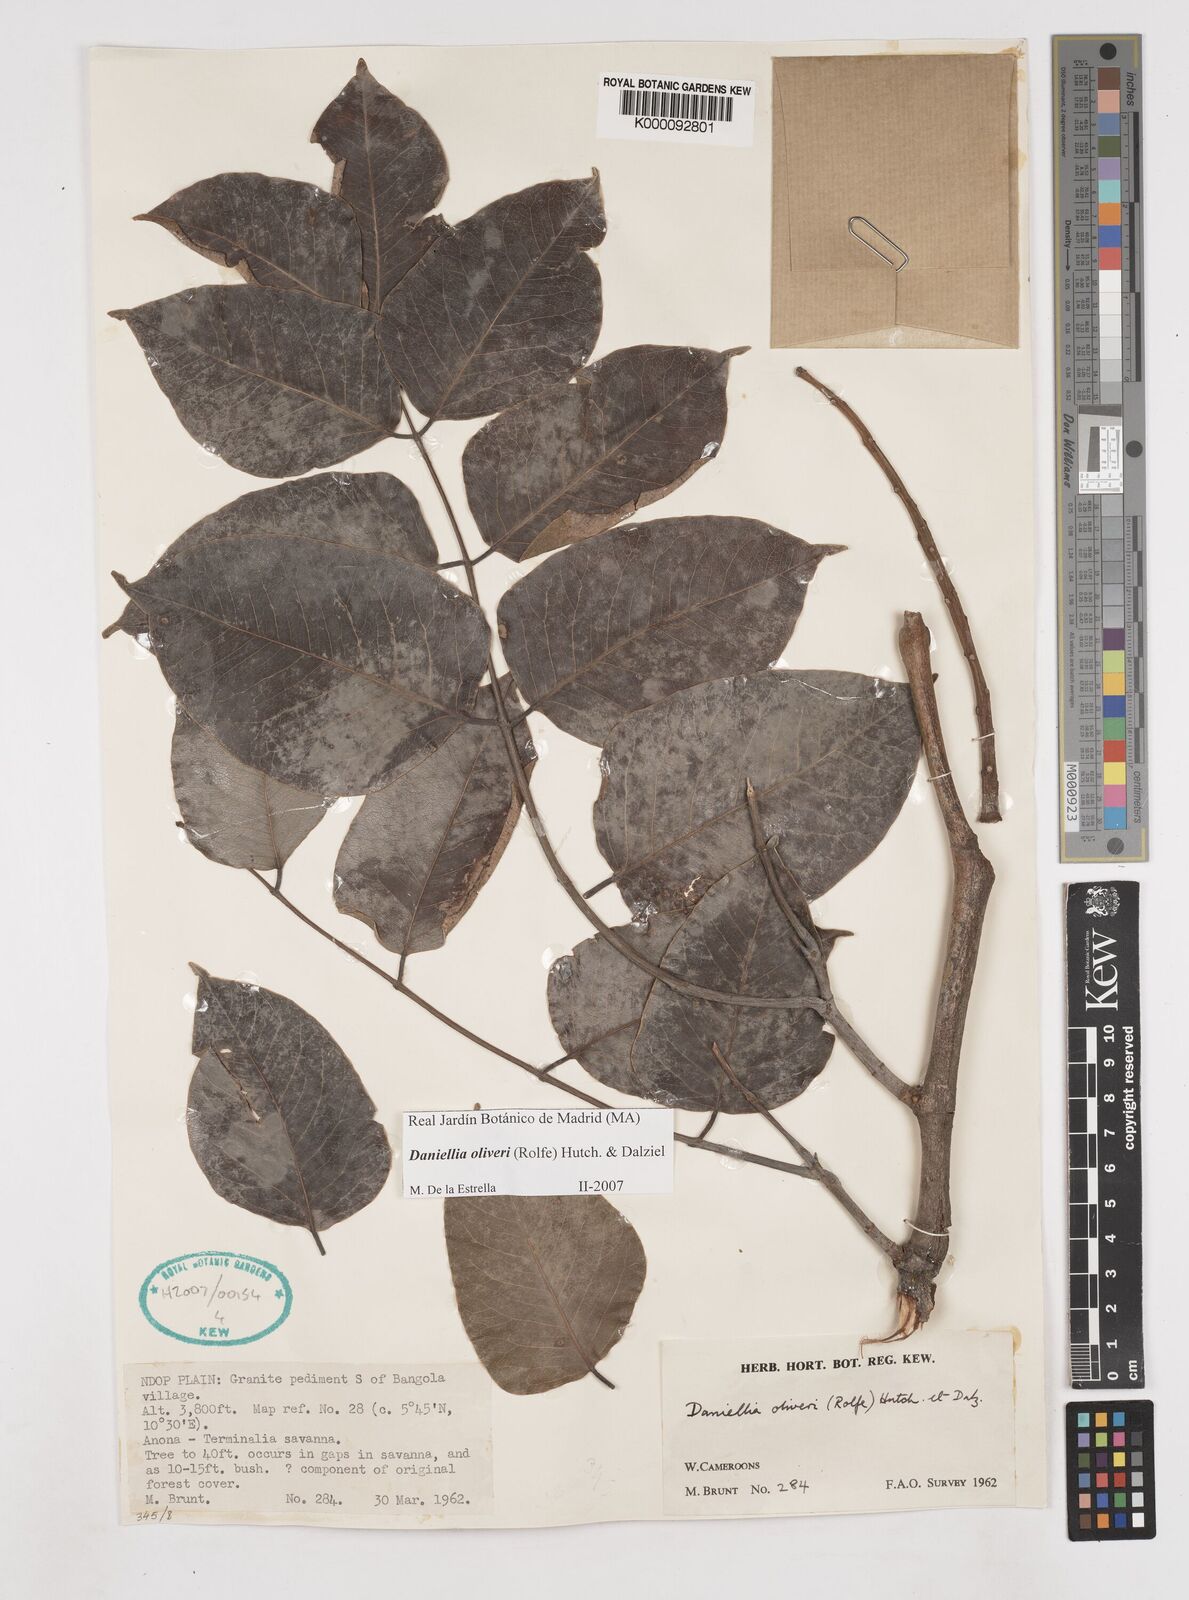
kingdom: Plantae
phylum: Tracheophyta
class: Magnoliopsida
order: Fabales
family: Fabaceae
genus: Daniellia
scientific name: Daniellia oliveri
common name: African copaiba balsamtree
